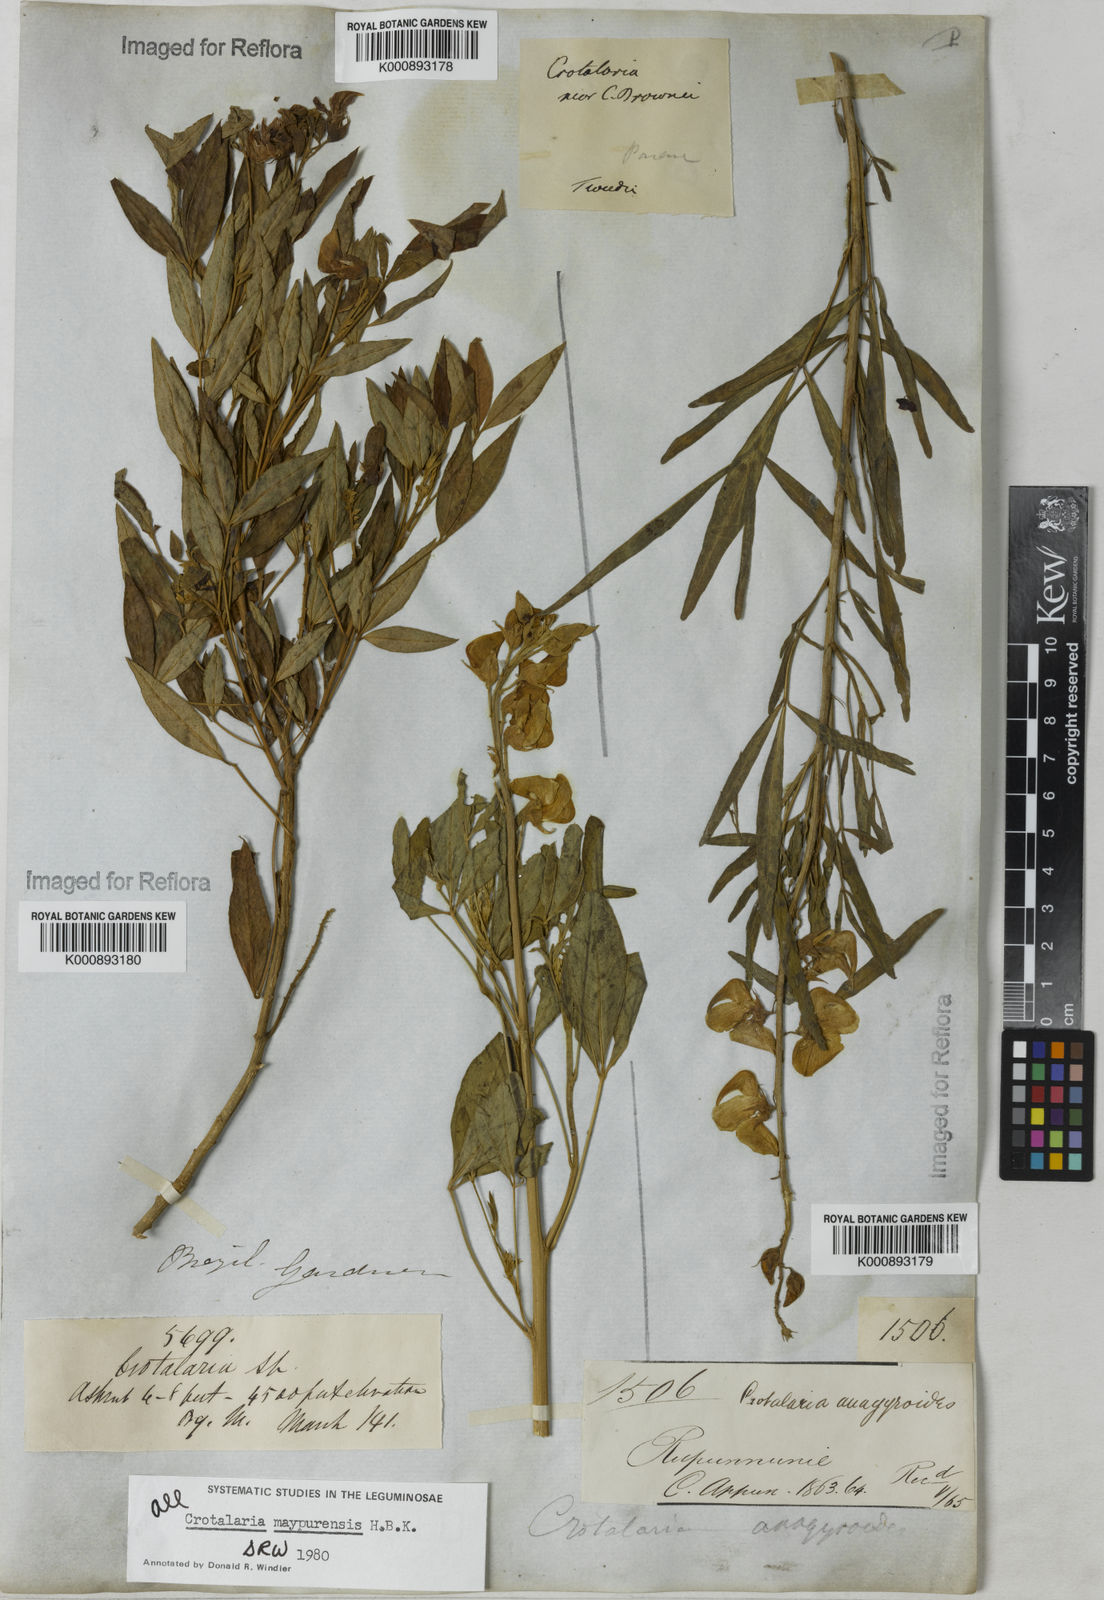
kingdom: Plantae
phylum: Tracheophyta
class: Magnoliopsida
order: Fabales
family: Fabaceae
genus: Crotalaria
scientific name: Crotalaria maypurensis
